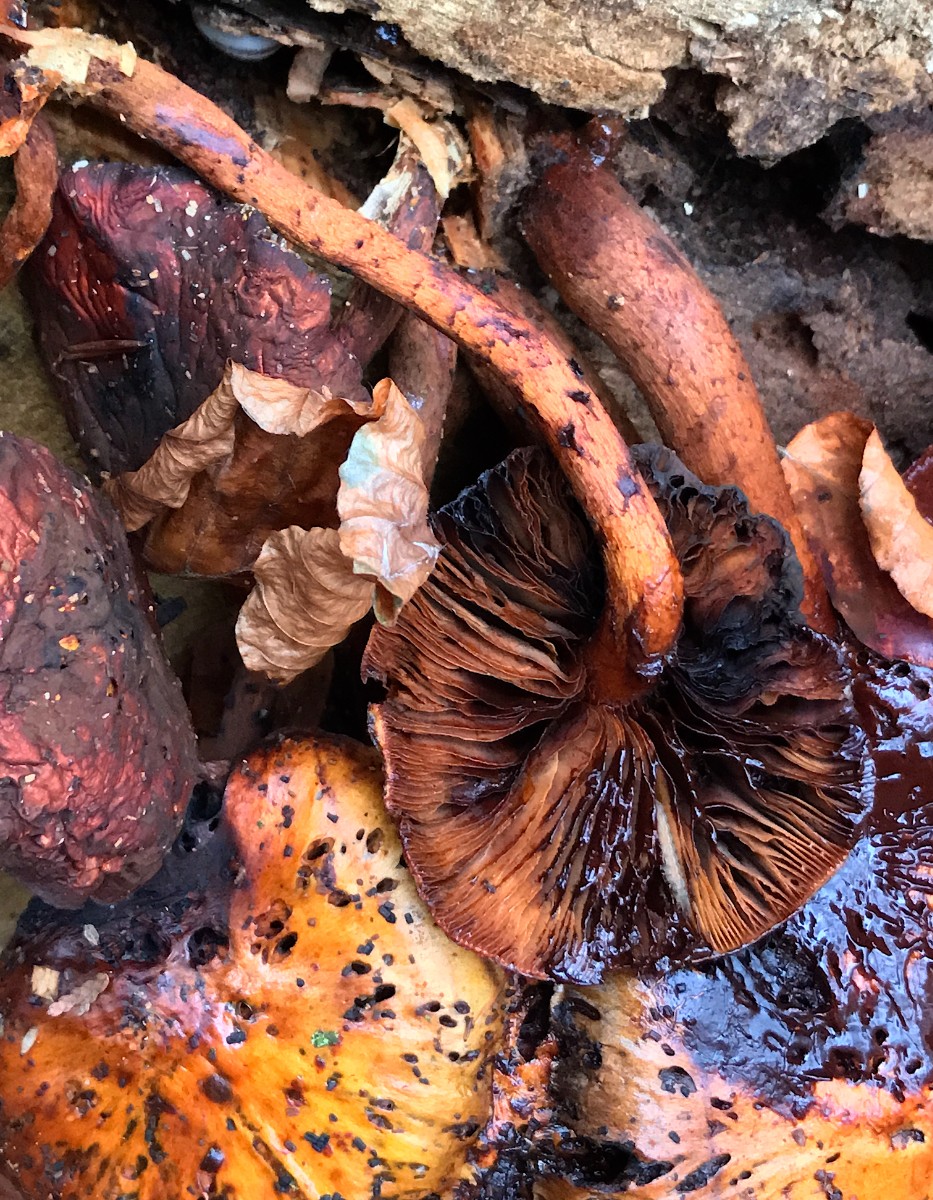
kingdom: Fungi
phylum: Basidiomycota
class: Agaricomycetes
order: Agaricales
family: Strophariaceae
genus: Pholiota
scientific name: Pholiota adiposa
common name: højtsiddende skælhat
